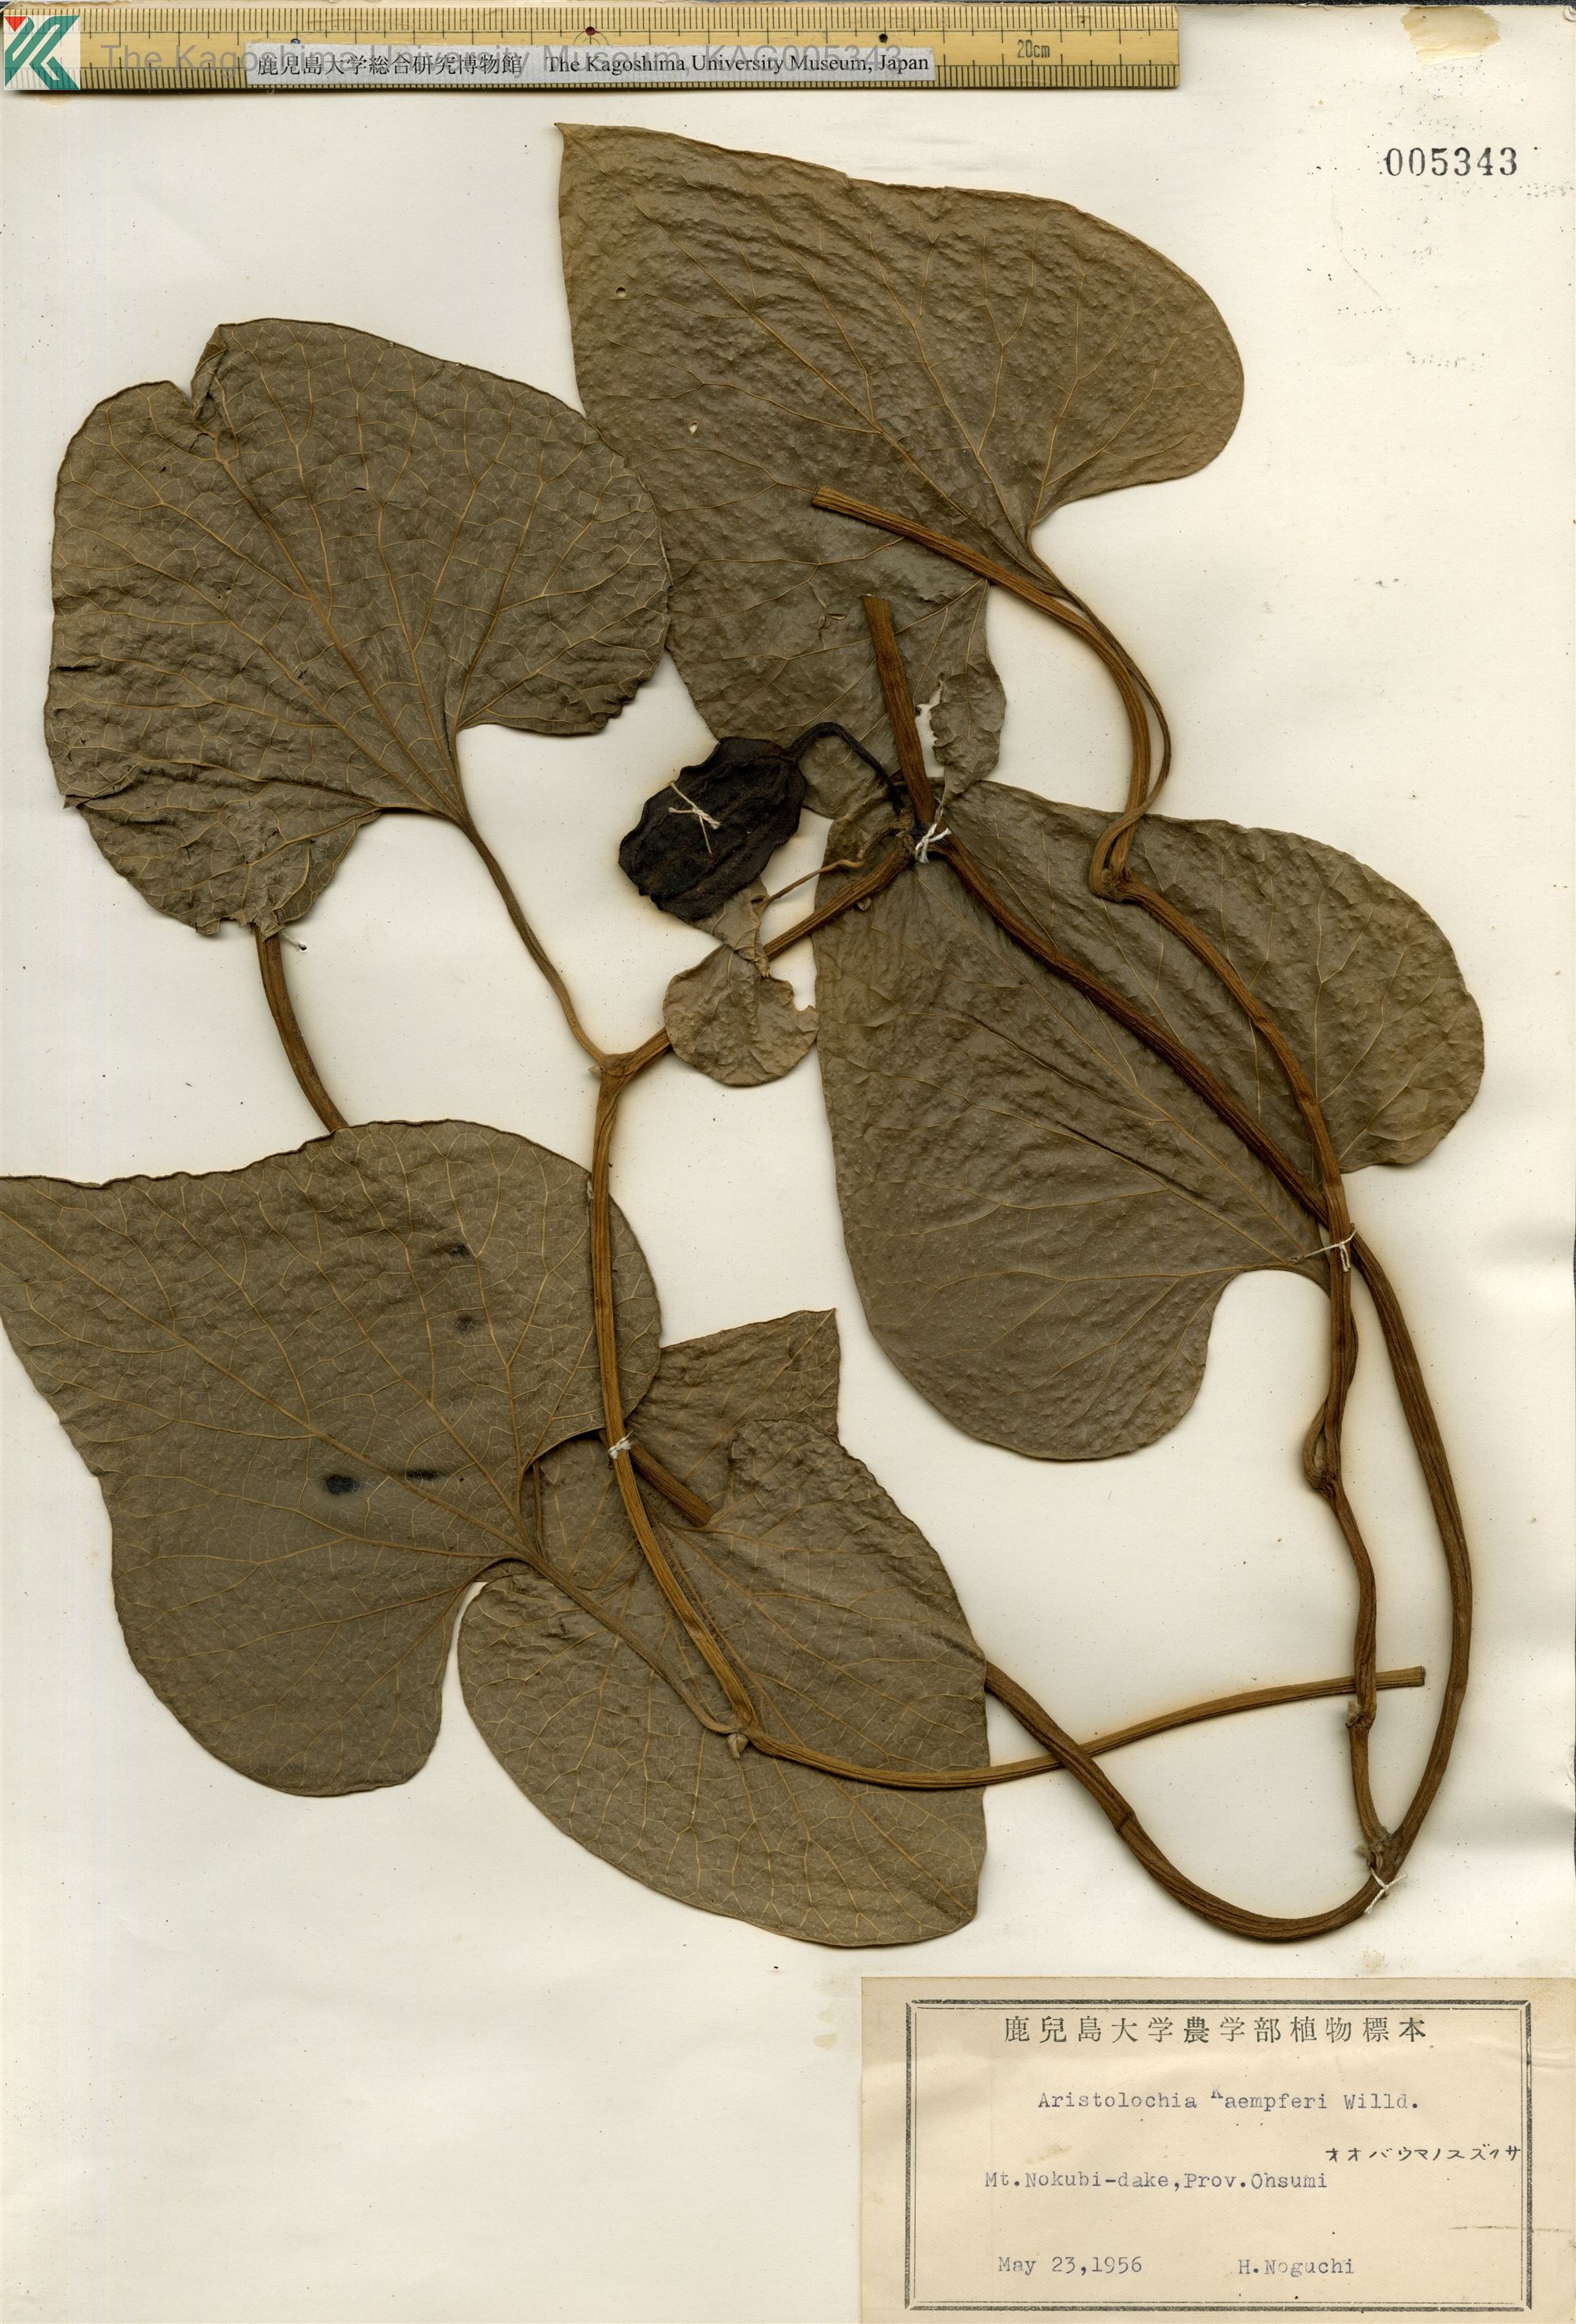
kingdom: Plantae
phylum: Tracheophyta
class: Magnoliopsida
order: Piperales
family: Aristolochiaceae
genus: Isotrema
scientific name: Isotrema kaempferi
